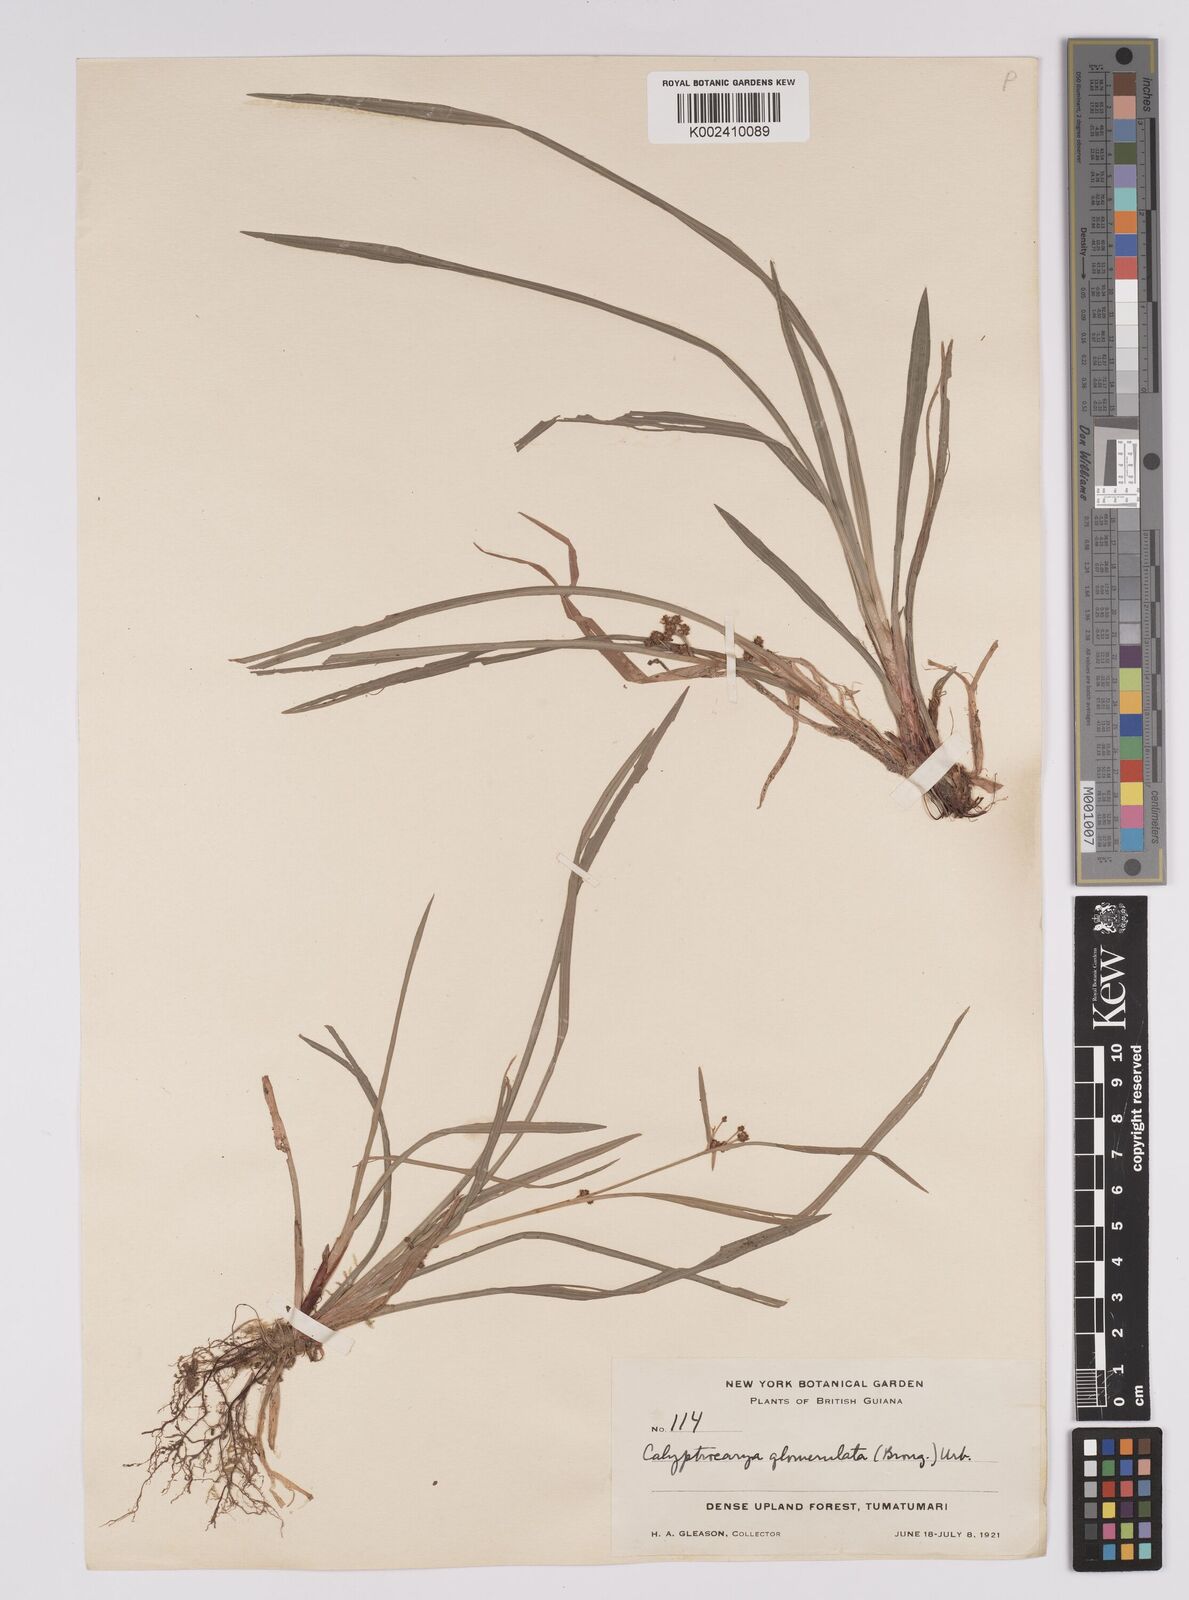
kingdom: Plantae
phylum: Tracheophyta
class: Liliopsida
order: Poales
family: Cyperaceae
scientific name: Cyperaceae
